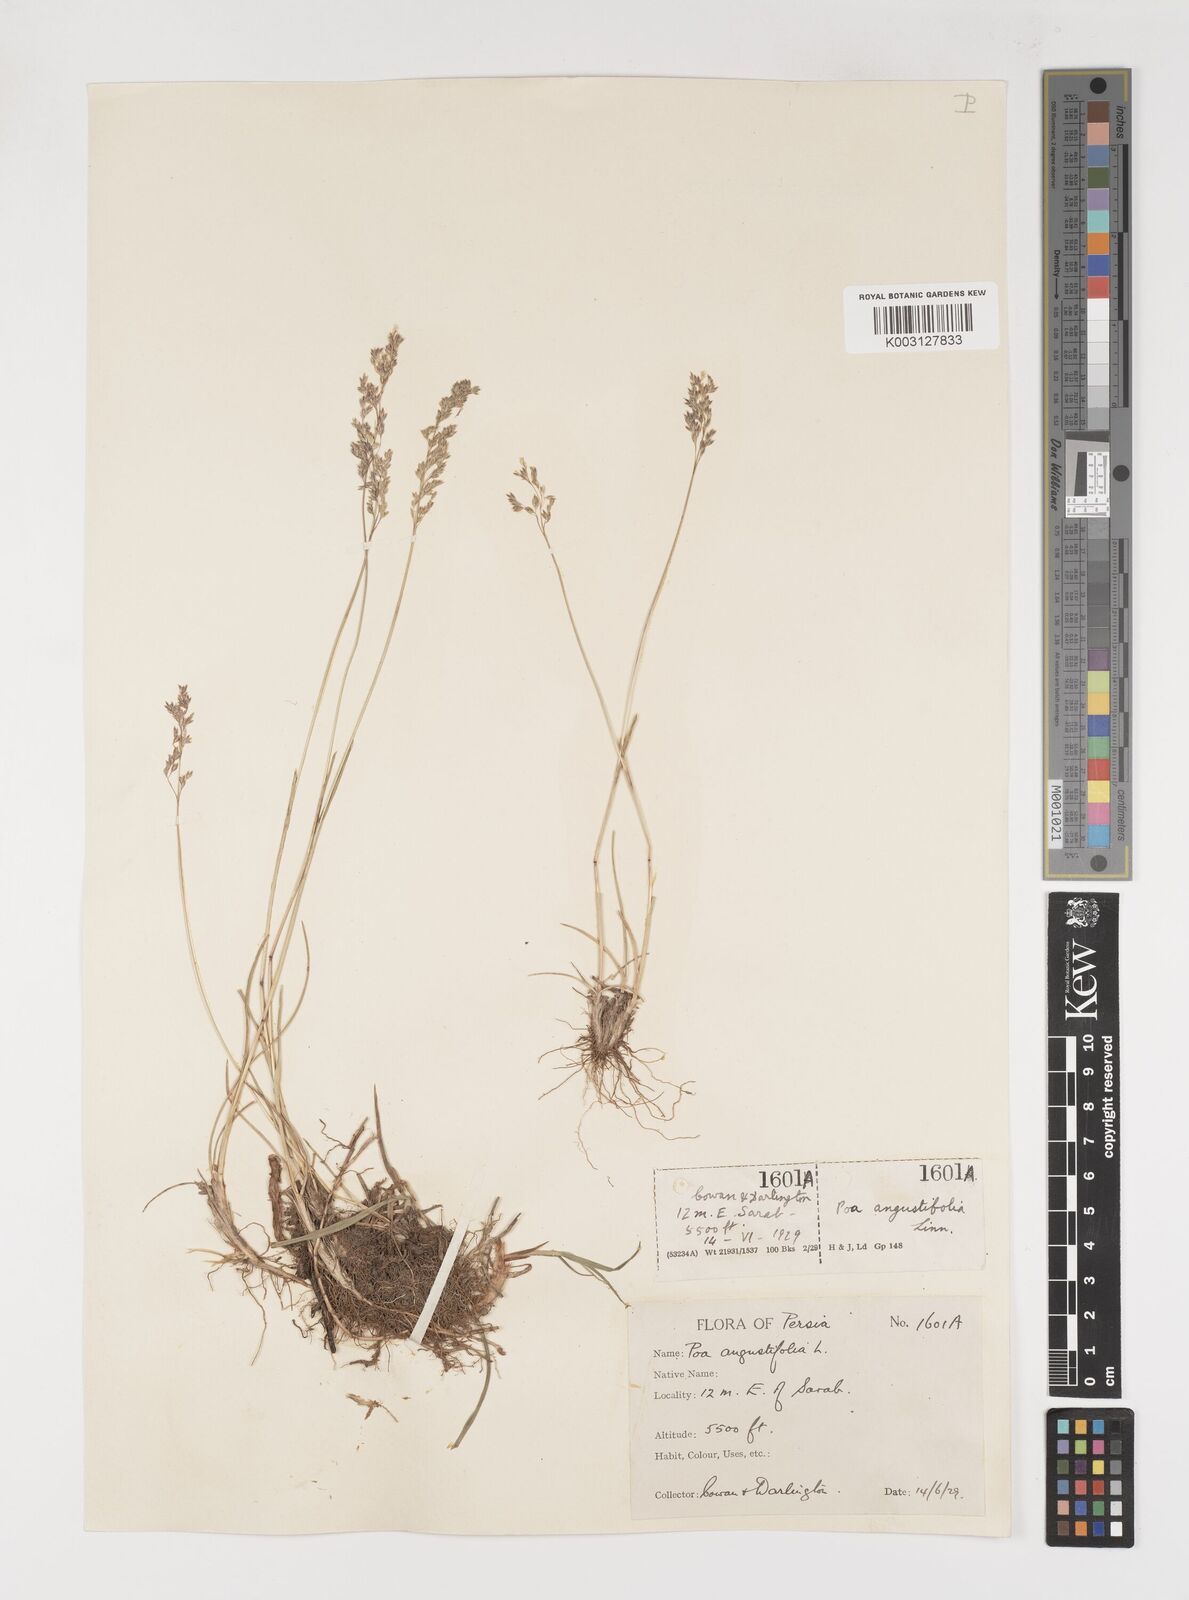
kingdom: Plantae
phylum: Tracheophyta
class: Liliopsida
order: Poales
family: Poaceae
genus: Poa
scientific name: Poa angustifolia
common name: Narrow-leaved meadow-grass
